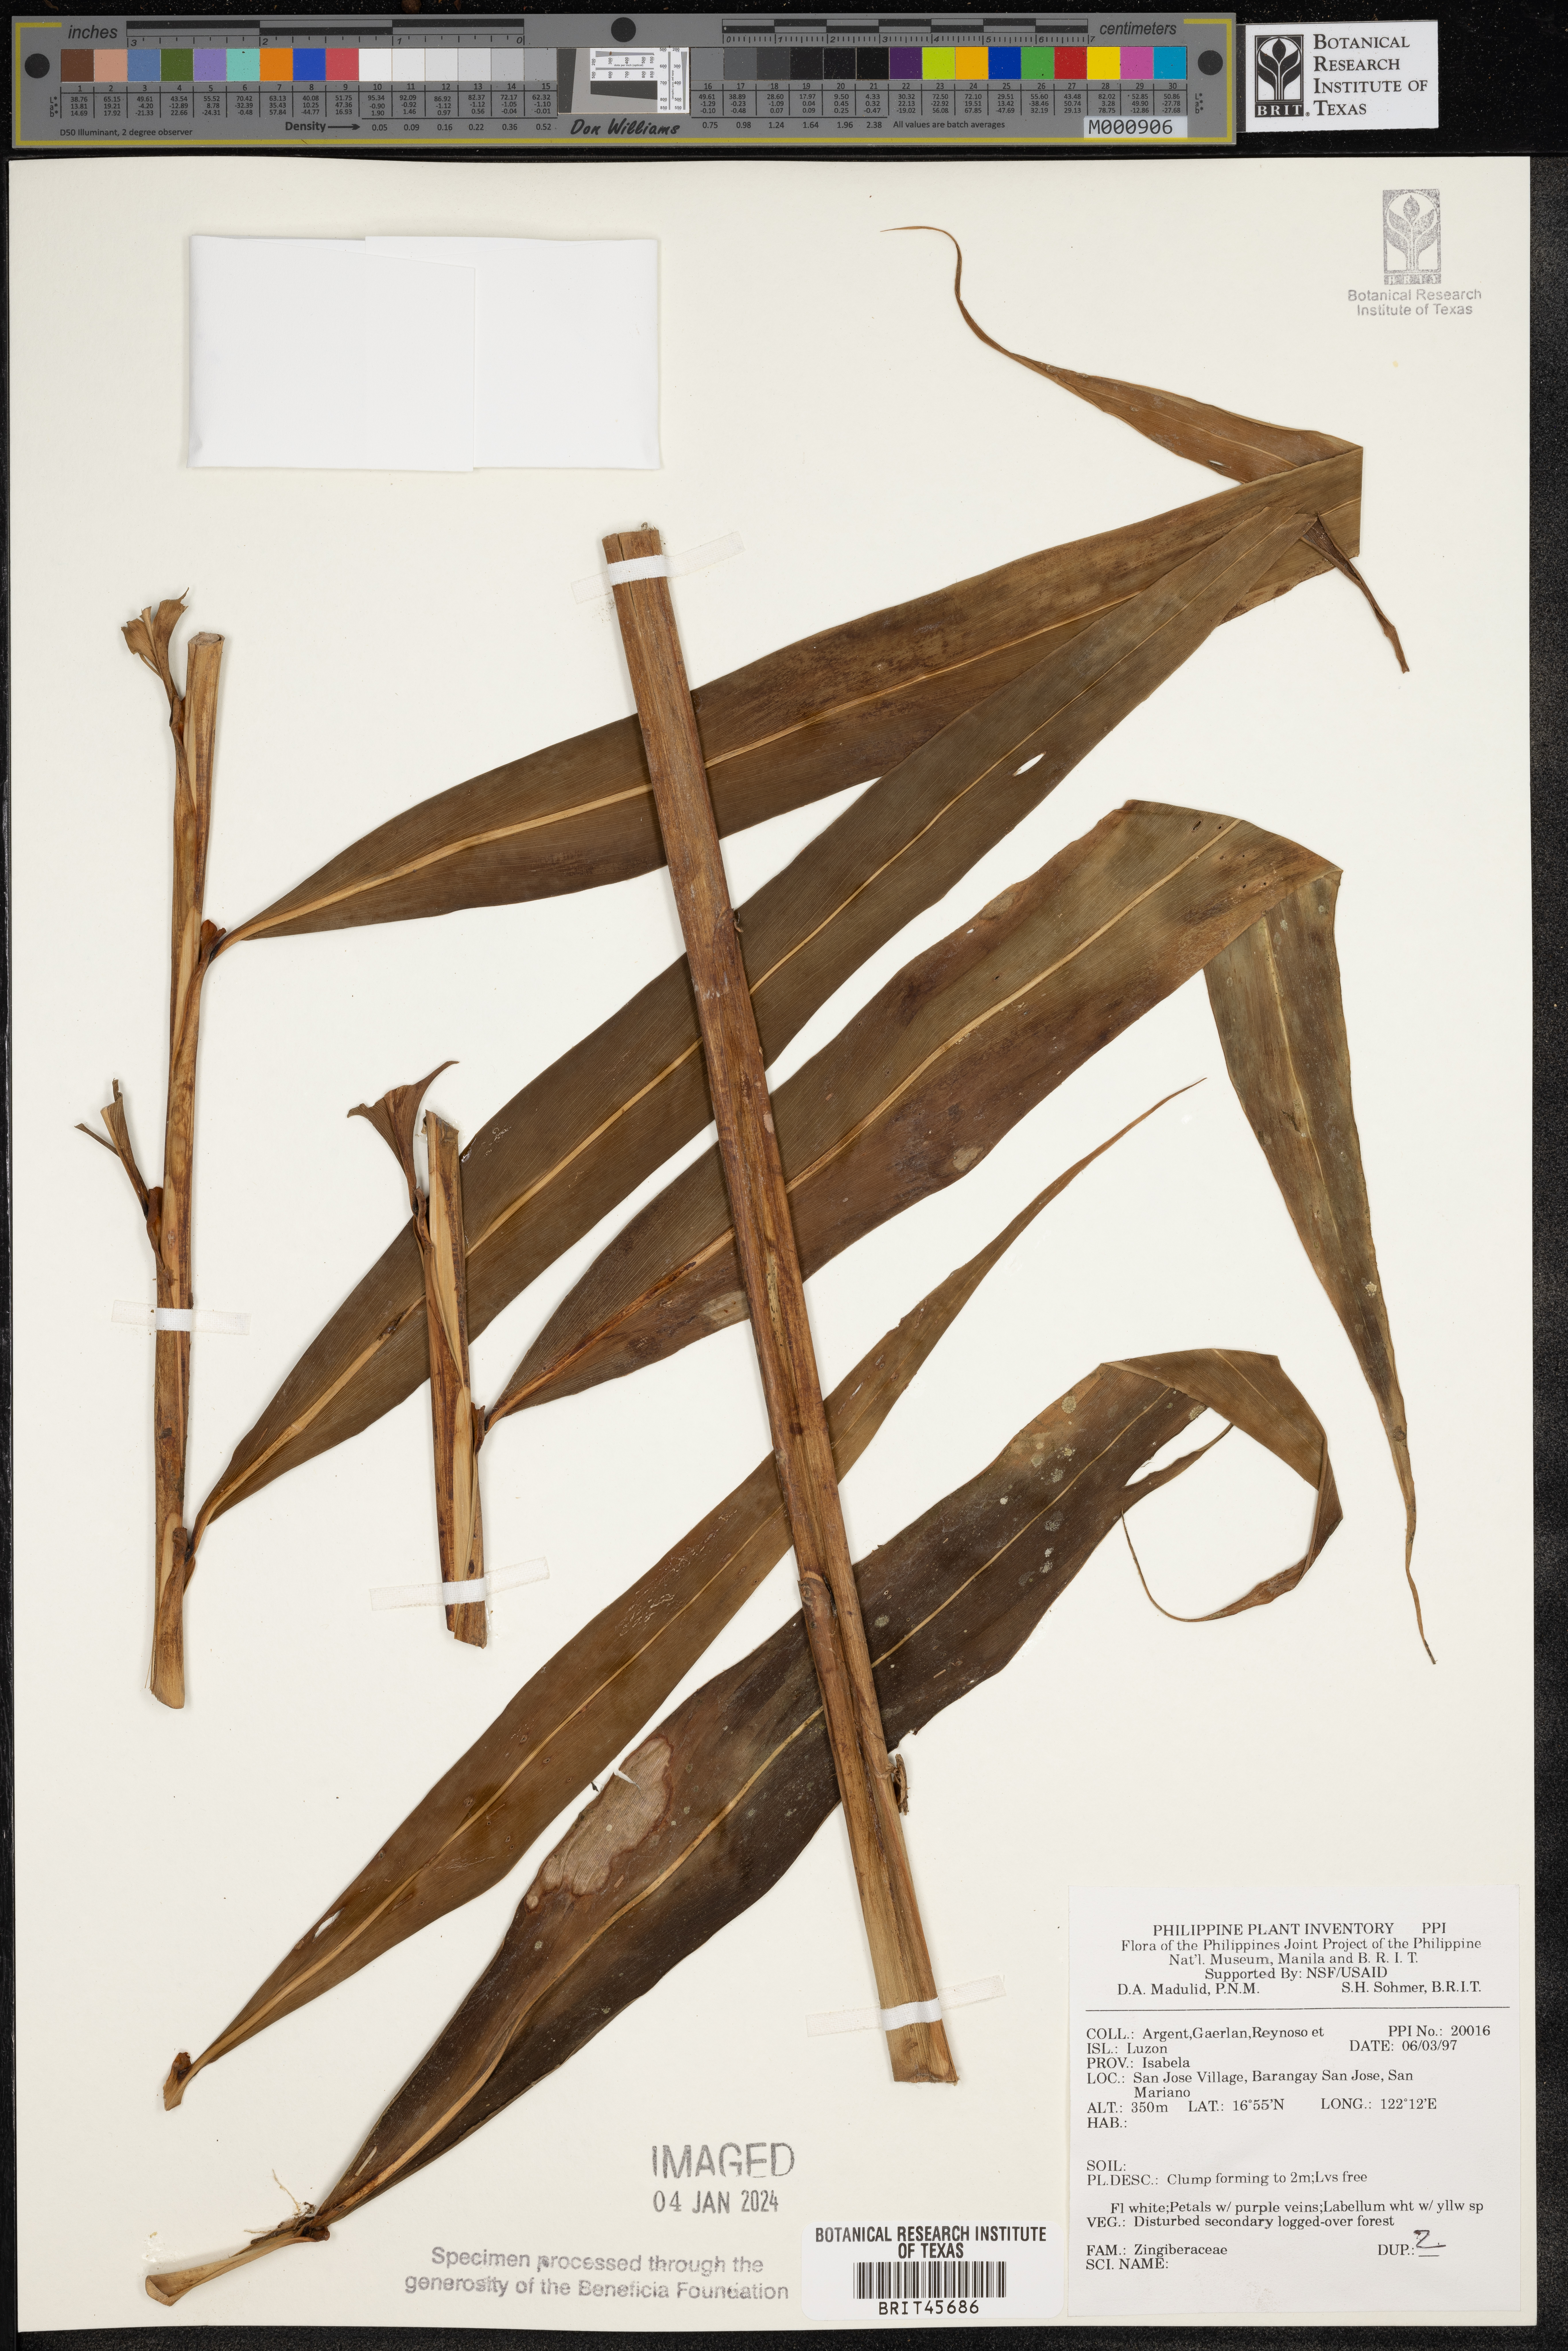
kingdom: Plantae
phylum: Tracheophyta
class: Liliopsida
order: Zingiberales
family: Zingiberaceae
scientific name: Zingiberaceae
